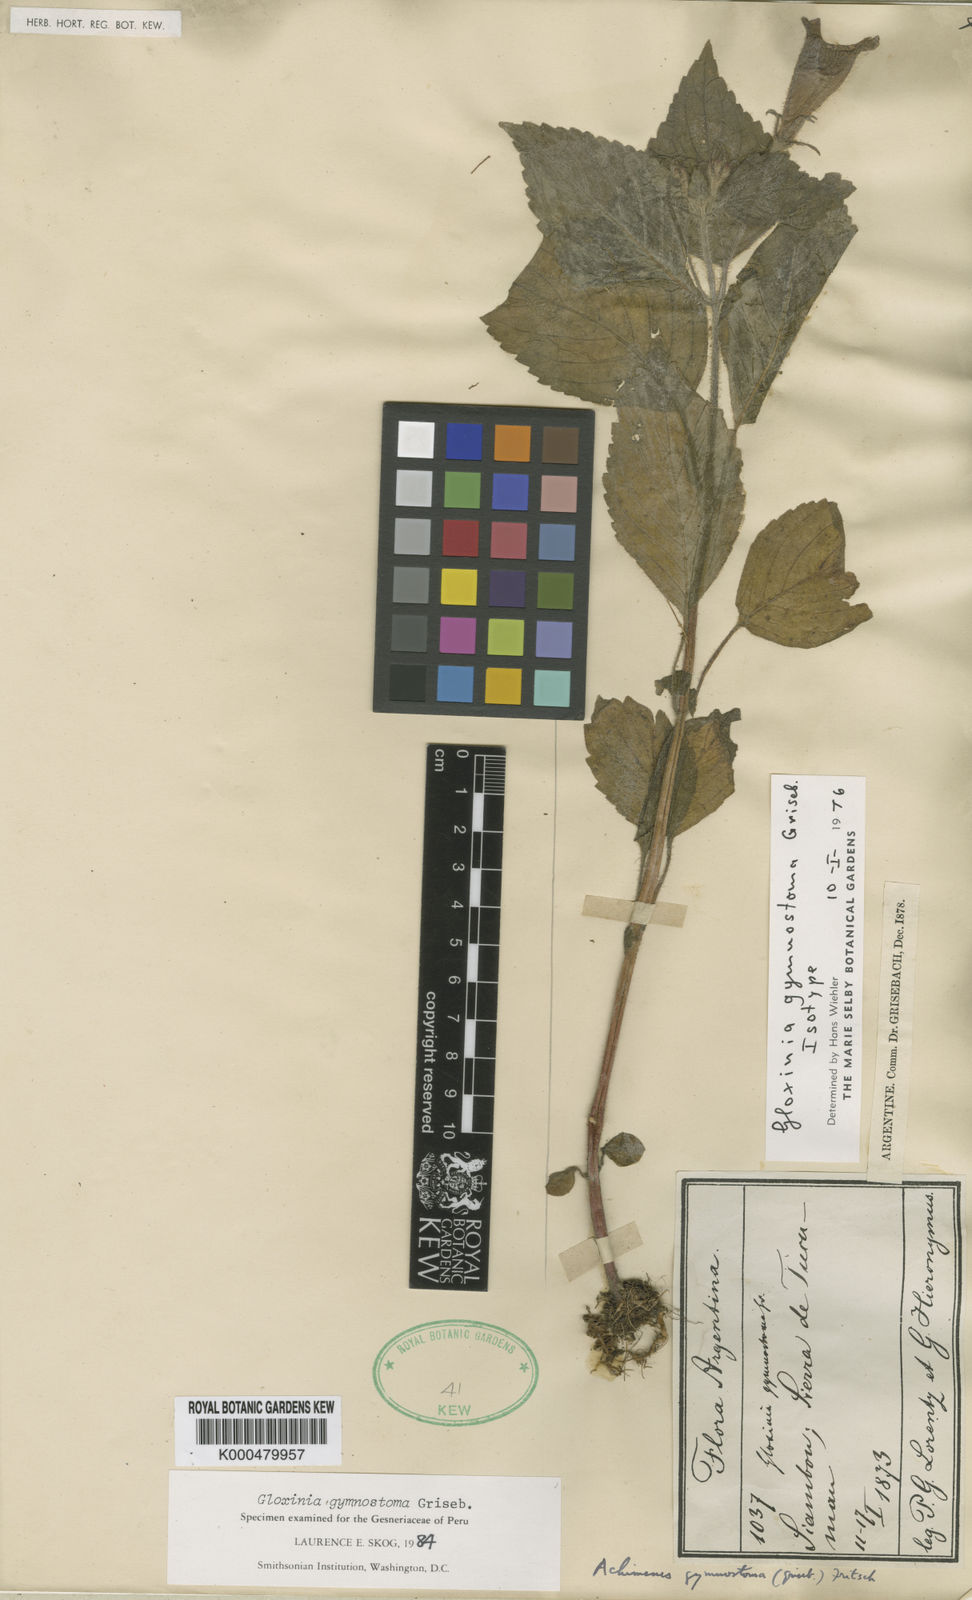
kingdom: Plantae
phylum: Tracheophyta
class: Magnoliopsida
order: Lamiales
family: Gesneriaceae
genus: Seemannia
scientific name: Seemannia gymnostoma
